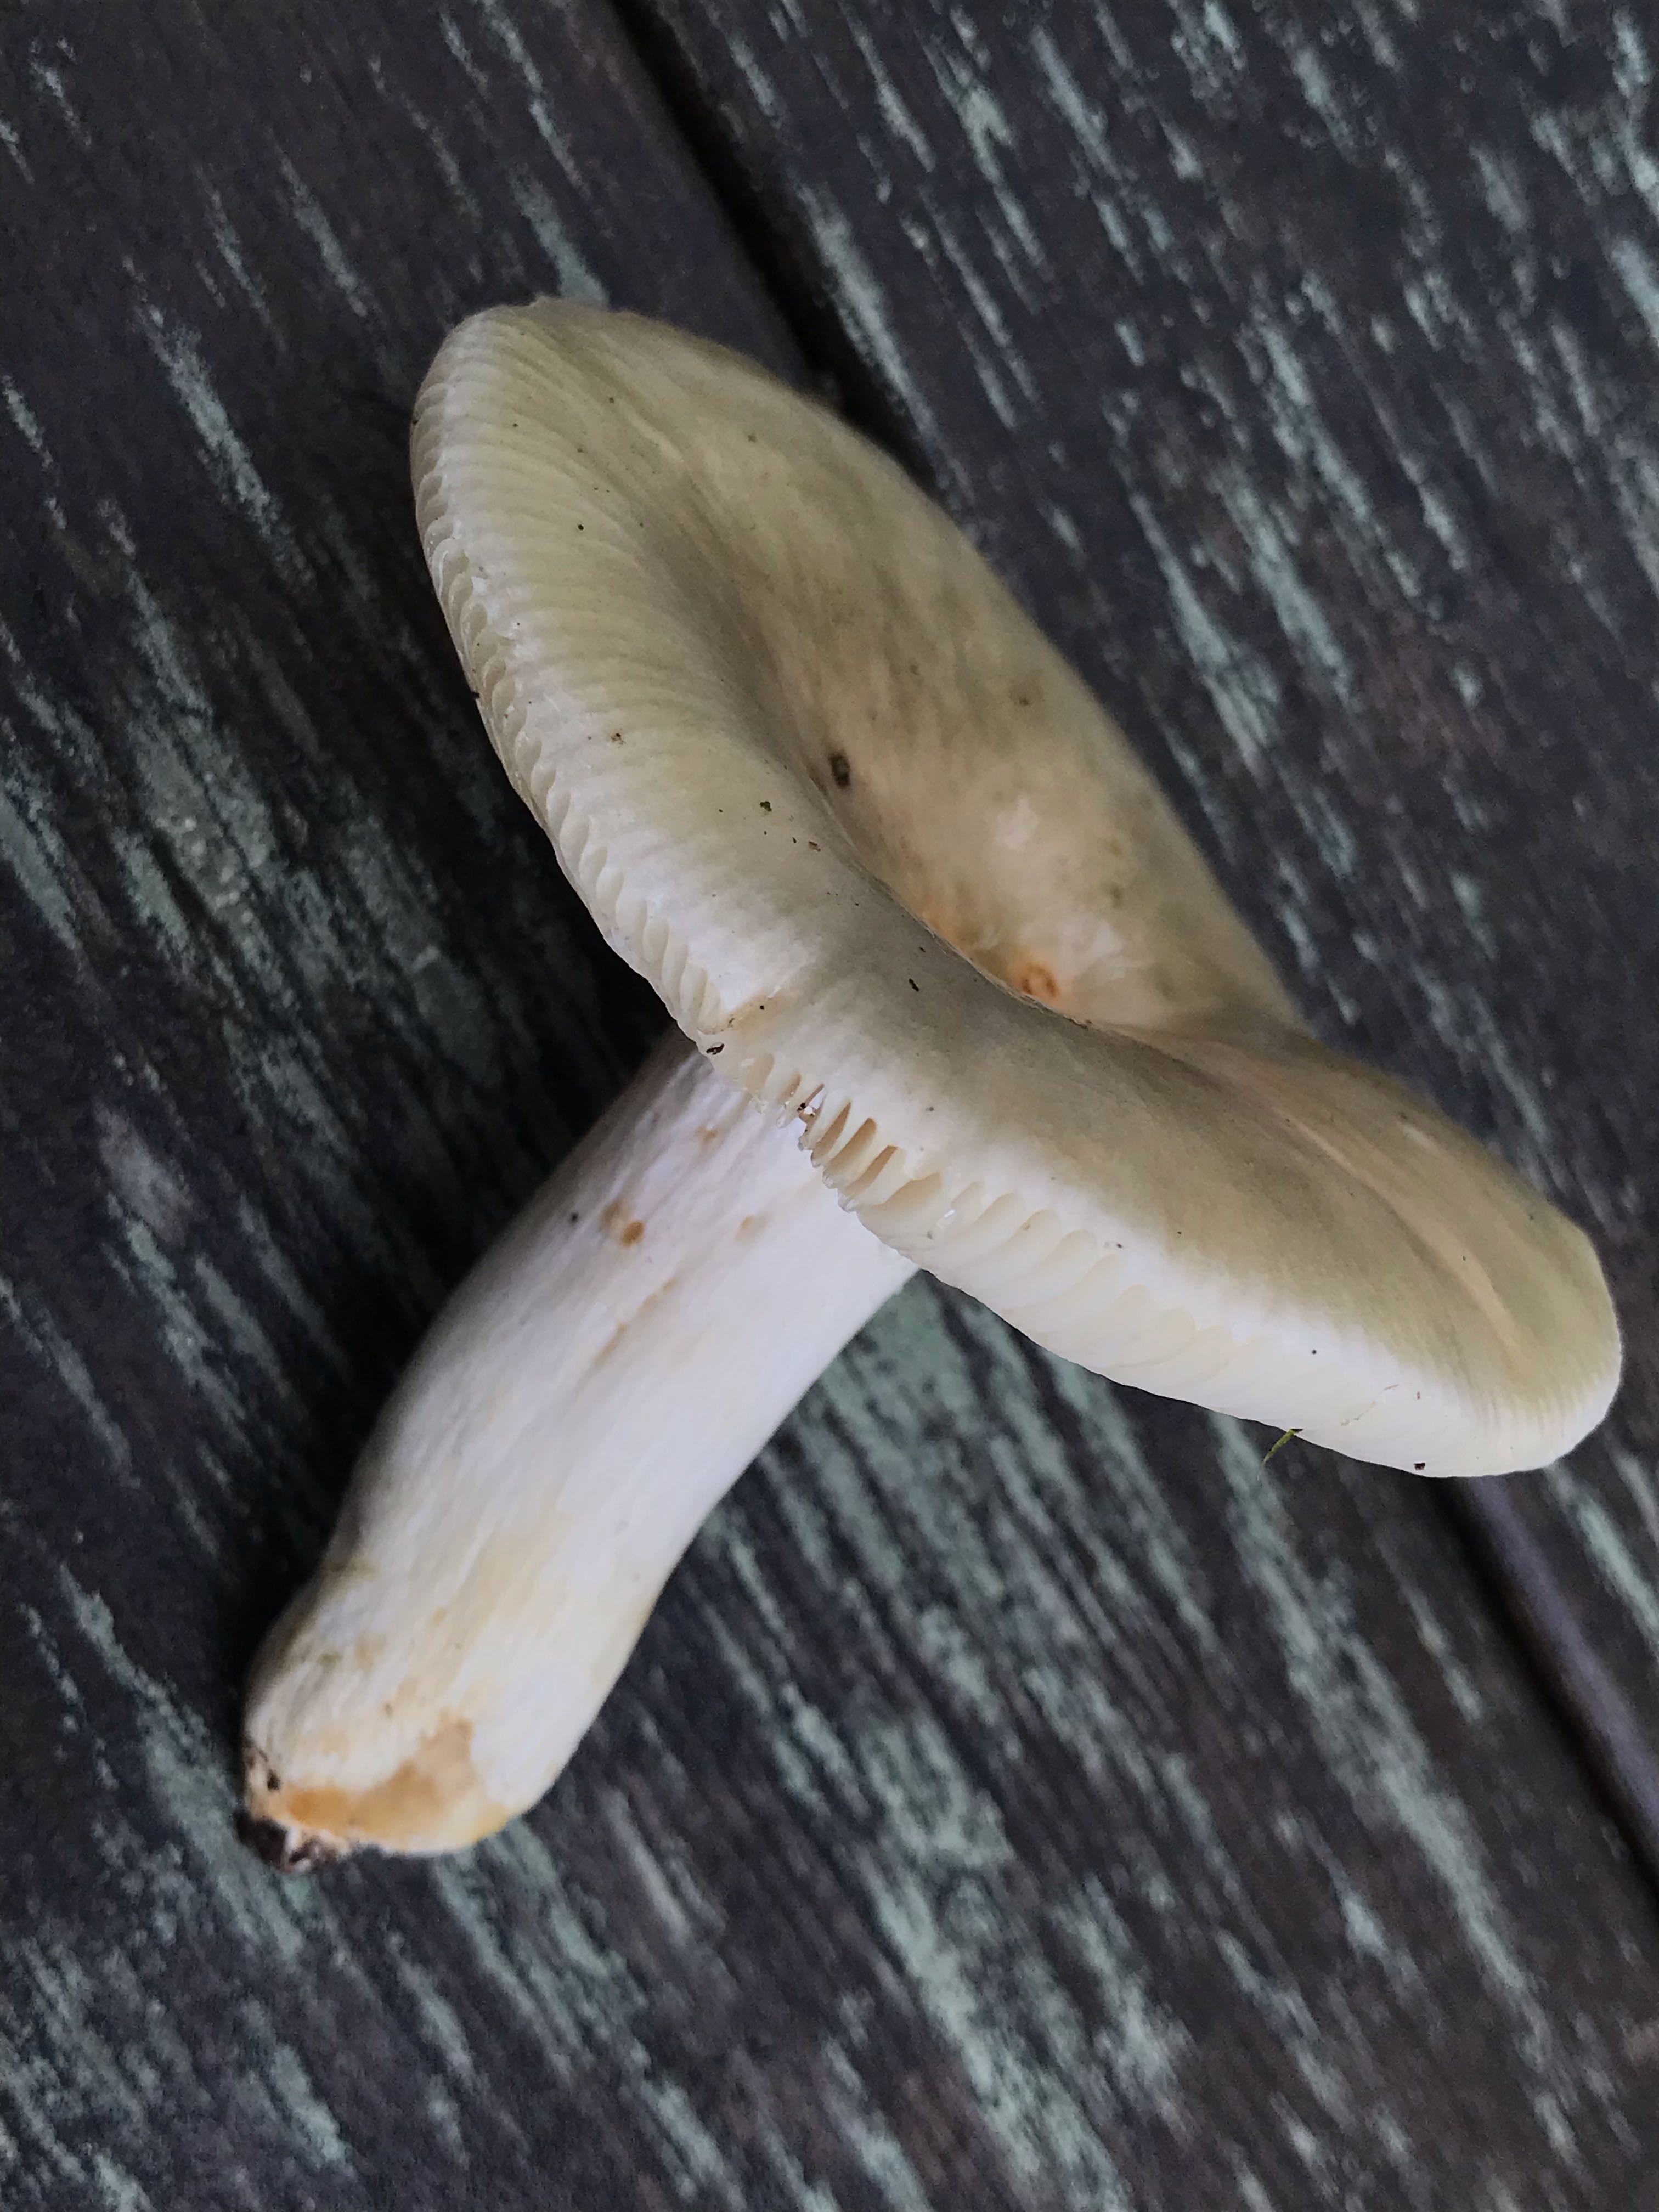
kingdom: Fungi
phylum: Basidiomycota
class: Agaricomycetes
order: Russulales
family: Russulaceae
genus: Russula
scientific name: Russula aeruginea
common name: græsgrøn skørhat
